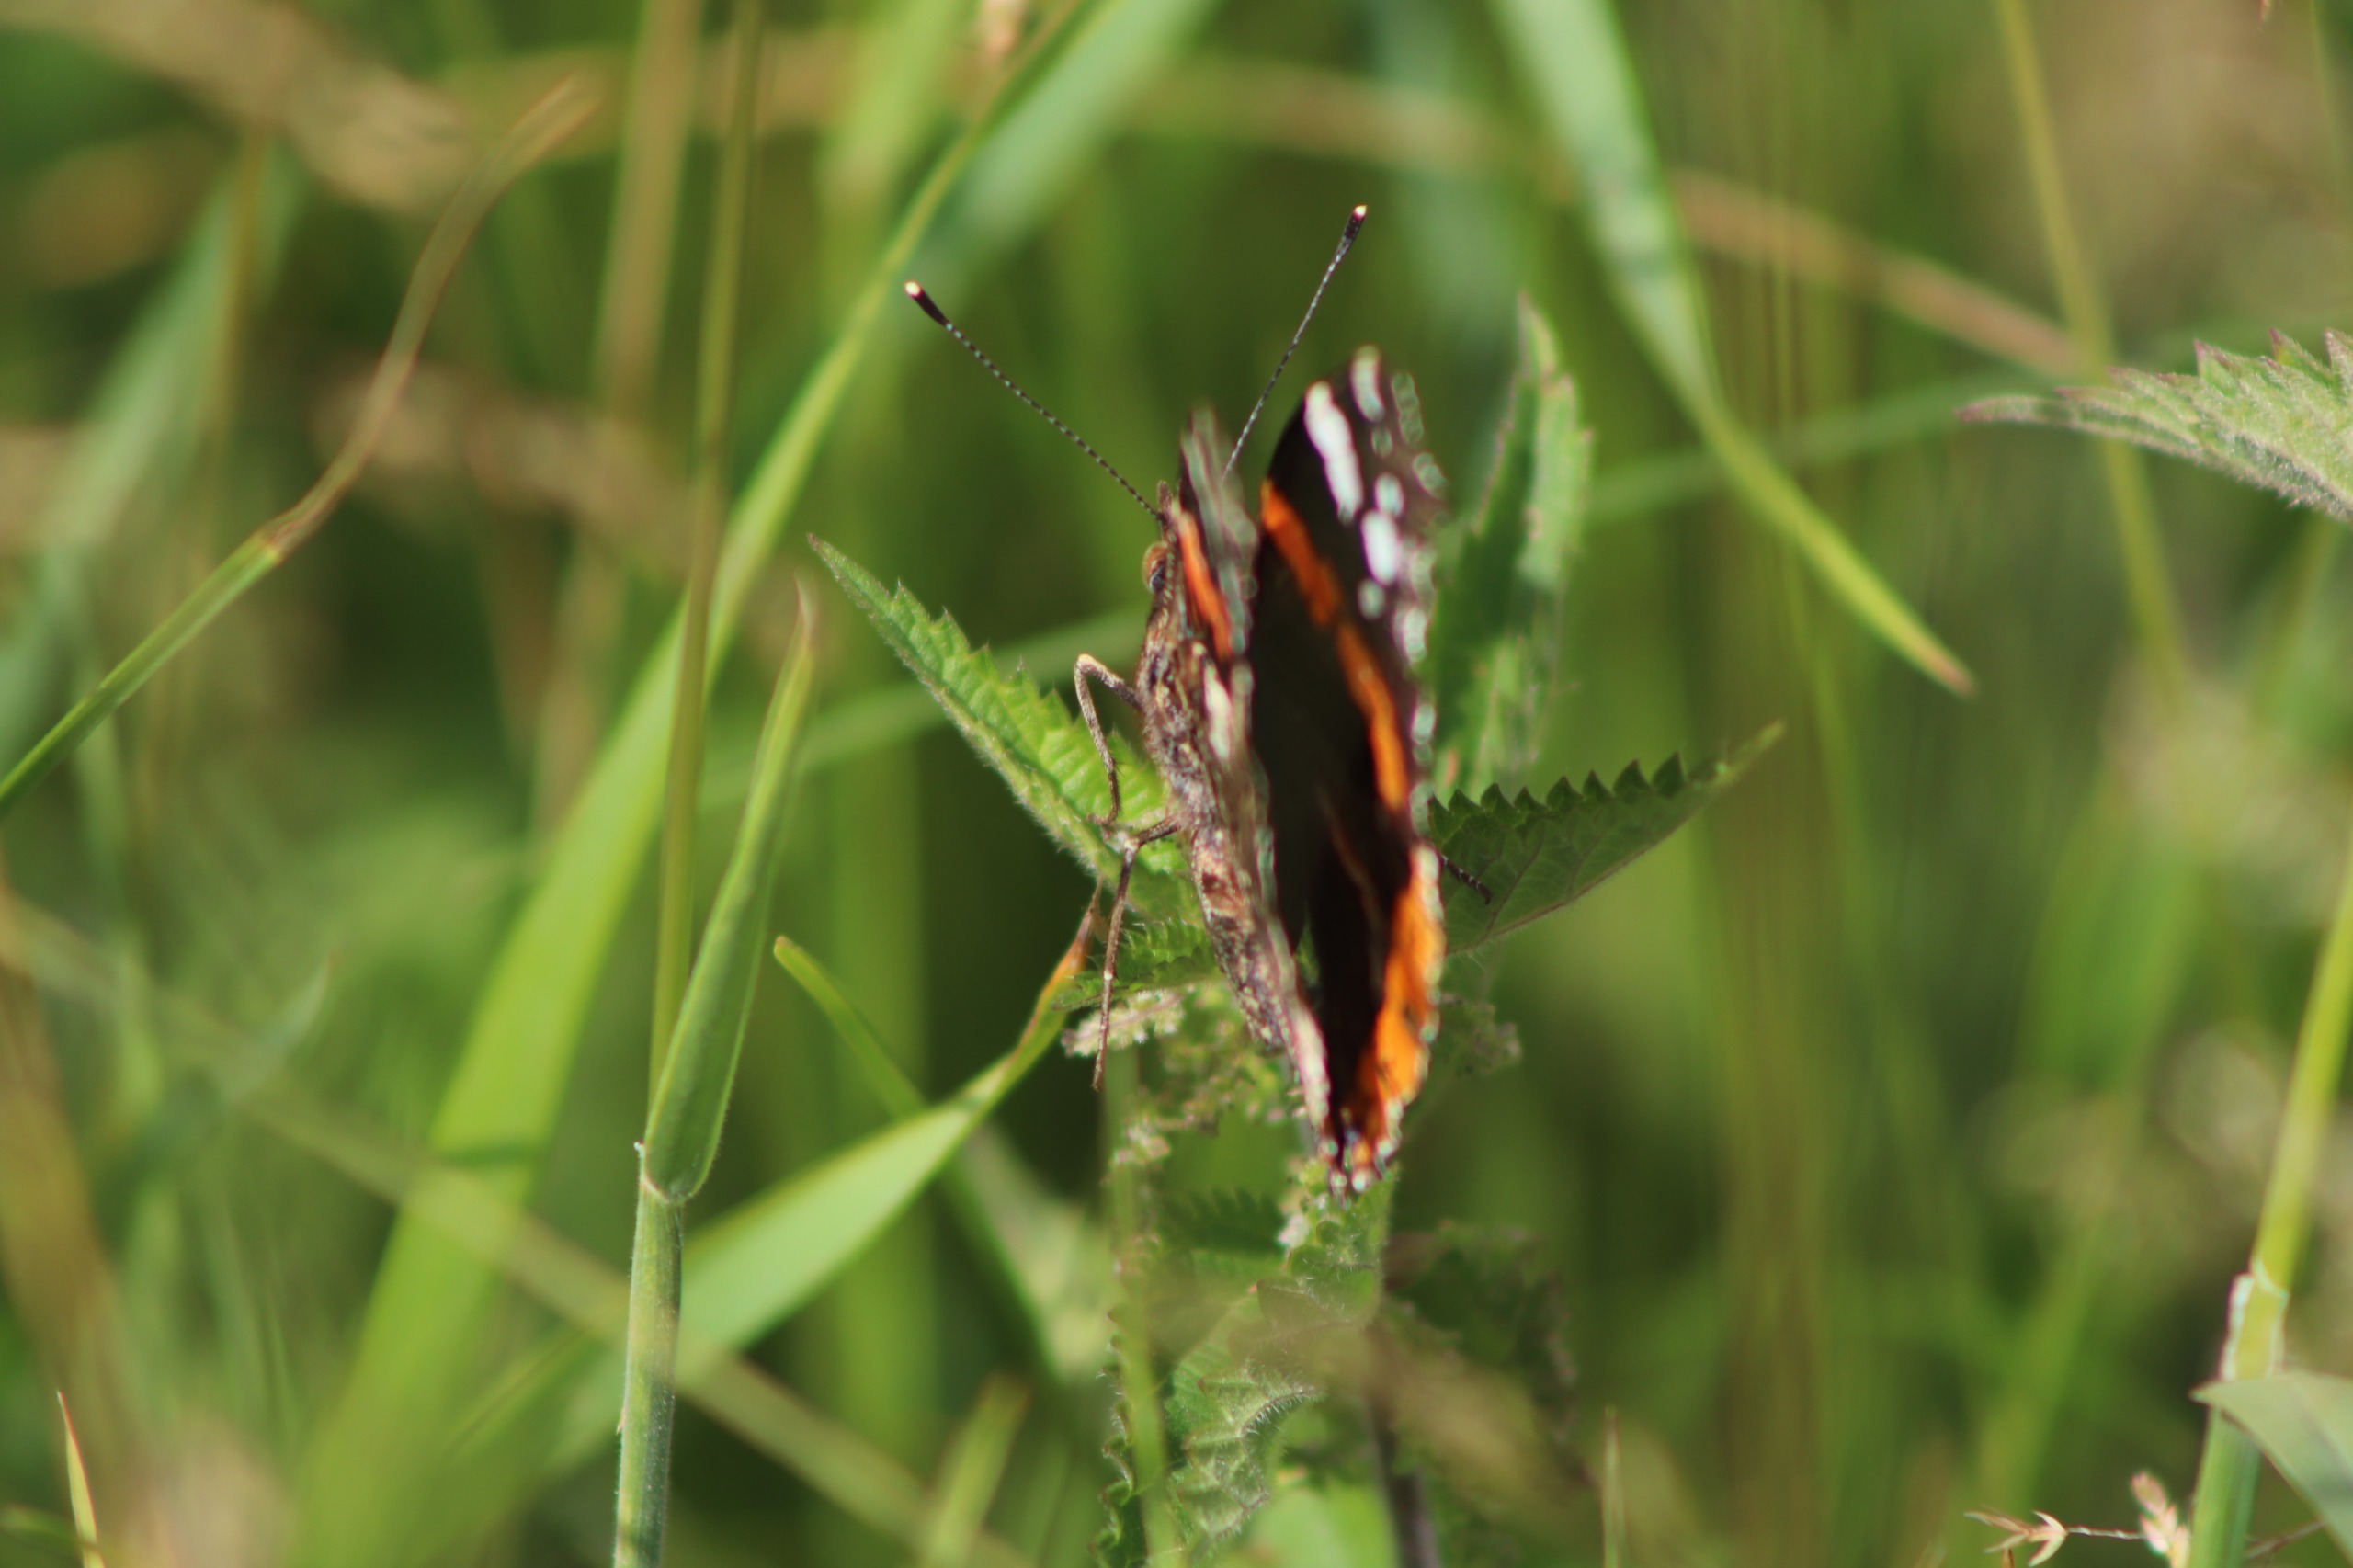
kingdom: Animalia
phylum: Arthropoda
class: Insecta
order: Lepidoptera
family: Nymphalidae
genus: Vanessa
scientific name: Vanessa atalanta
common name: Admiral
